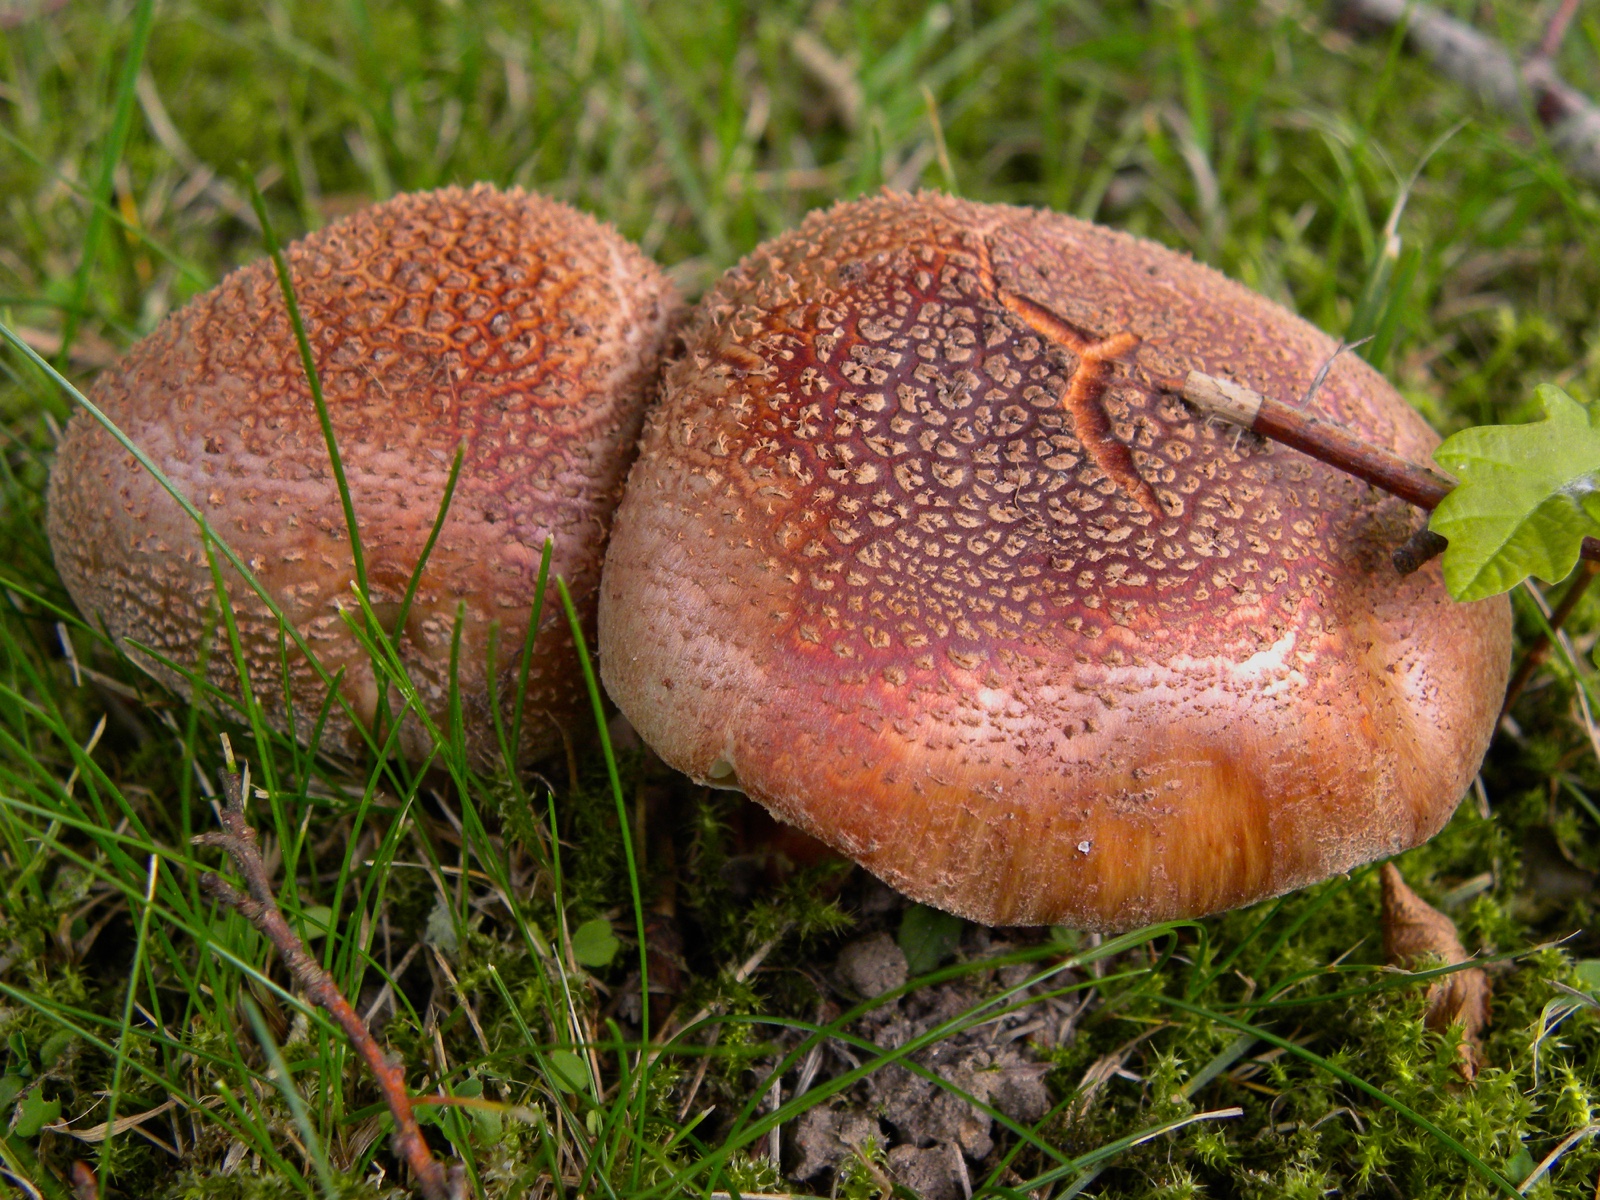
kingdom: Fungi
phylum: Basidiomycota
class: Agaricomycetes
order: Agaricales
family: Amanitaceae
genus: Amanita
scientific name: Amanita rubescens
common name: rødmende fluesvamp
